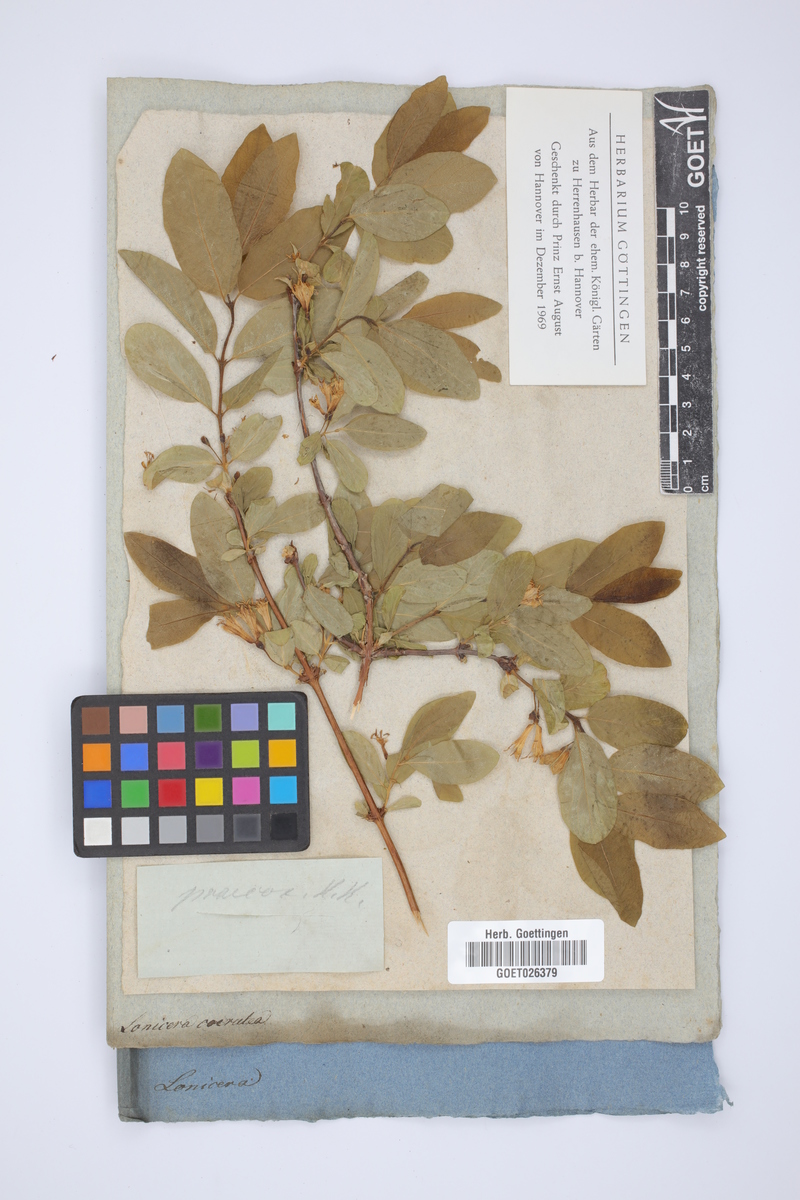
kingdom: Plantae
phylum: Tracheophyta
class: Magnoliopsida
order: Dipsacales
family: Caprifoliaceae
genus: Lonicera
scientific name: Lonicera caerulea
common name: Blue honeysuckle
